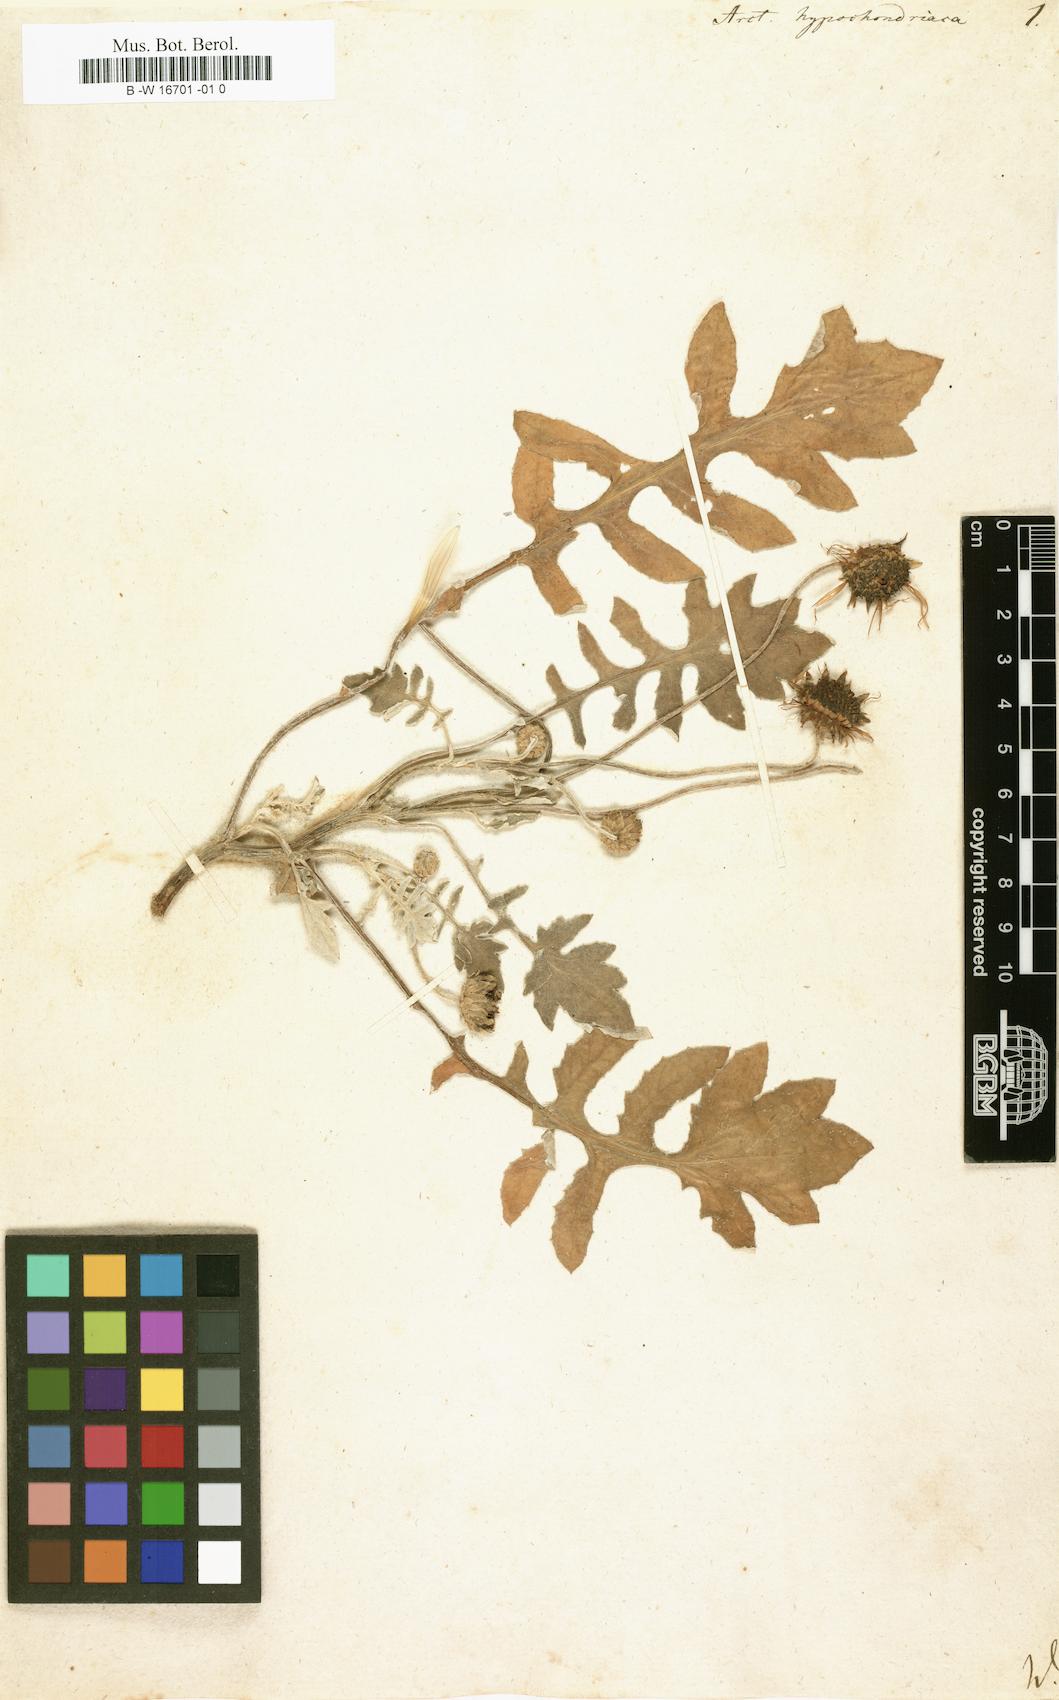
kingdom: Plantae
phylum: Tracheophyta
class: Magnoliopsida
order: Asterales
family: Asteraceae
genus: Arctotheca
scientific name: Arctotheca calendula
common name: Capeweed
